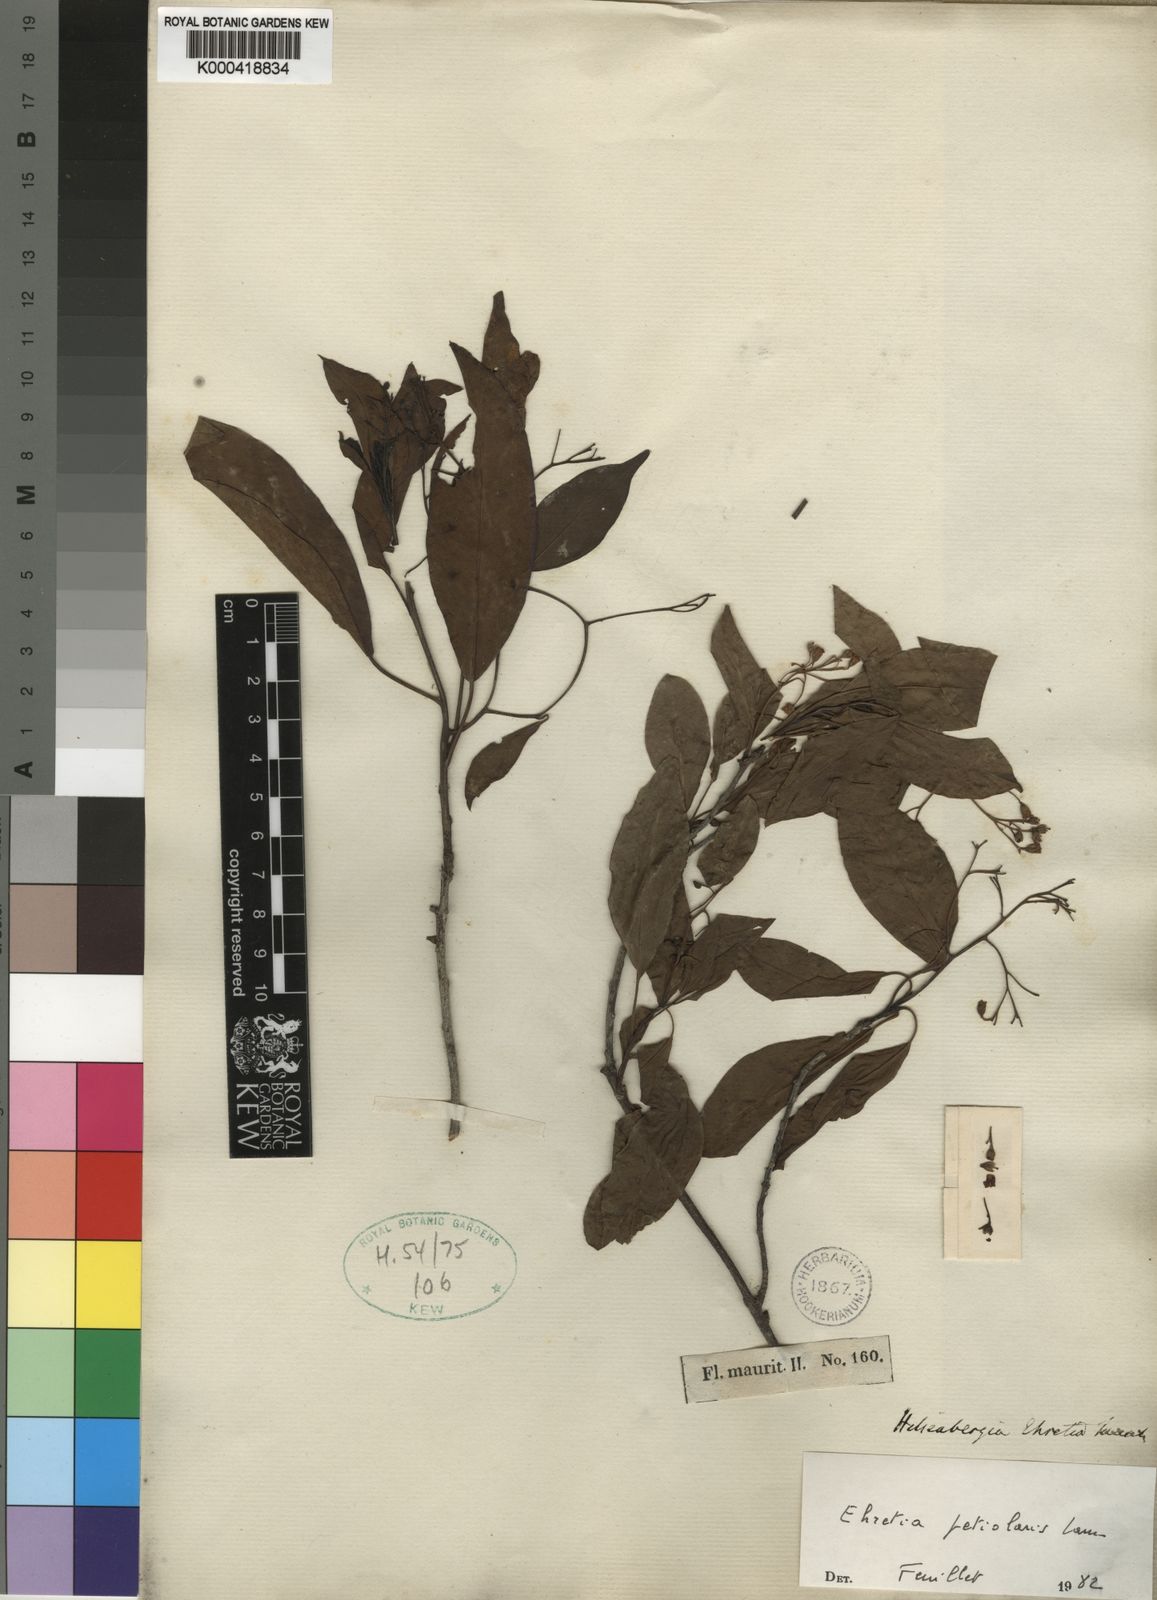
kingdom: Plantae
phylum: Tracheophyta
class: Magnoliopsida
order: Boraginales
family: Ehretiaceae
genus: Bourreria
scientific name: Bourreria petiolaris
